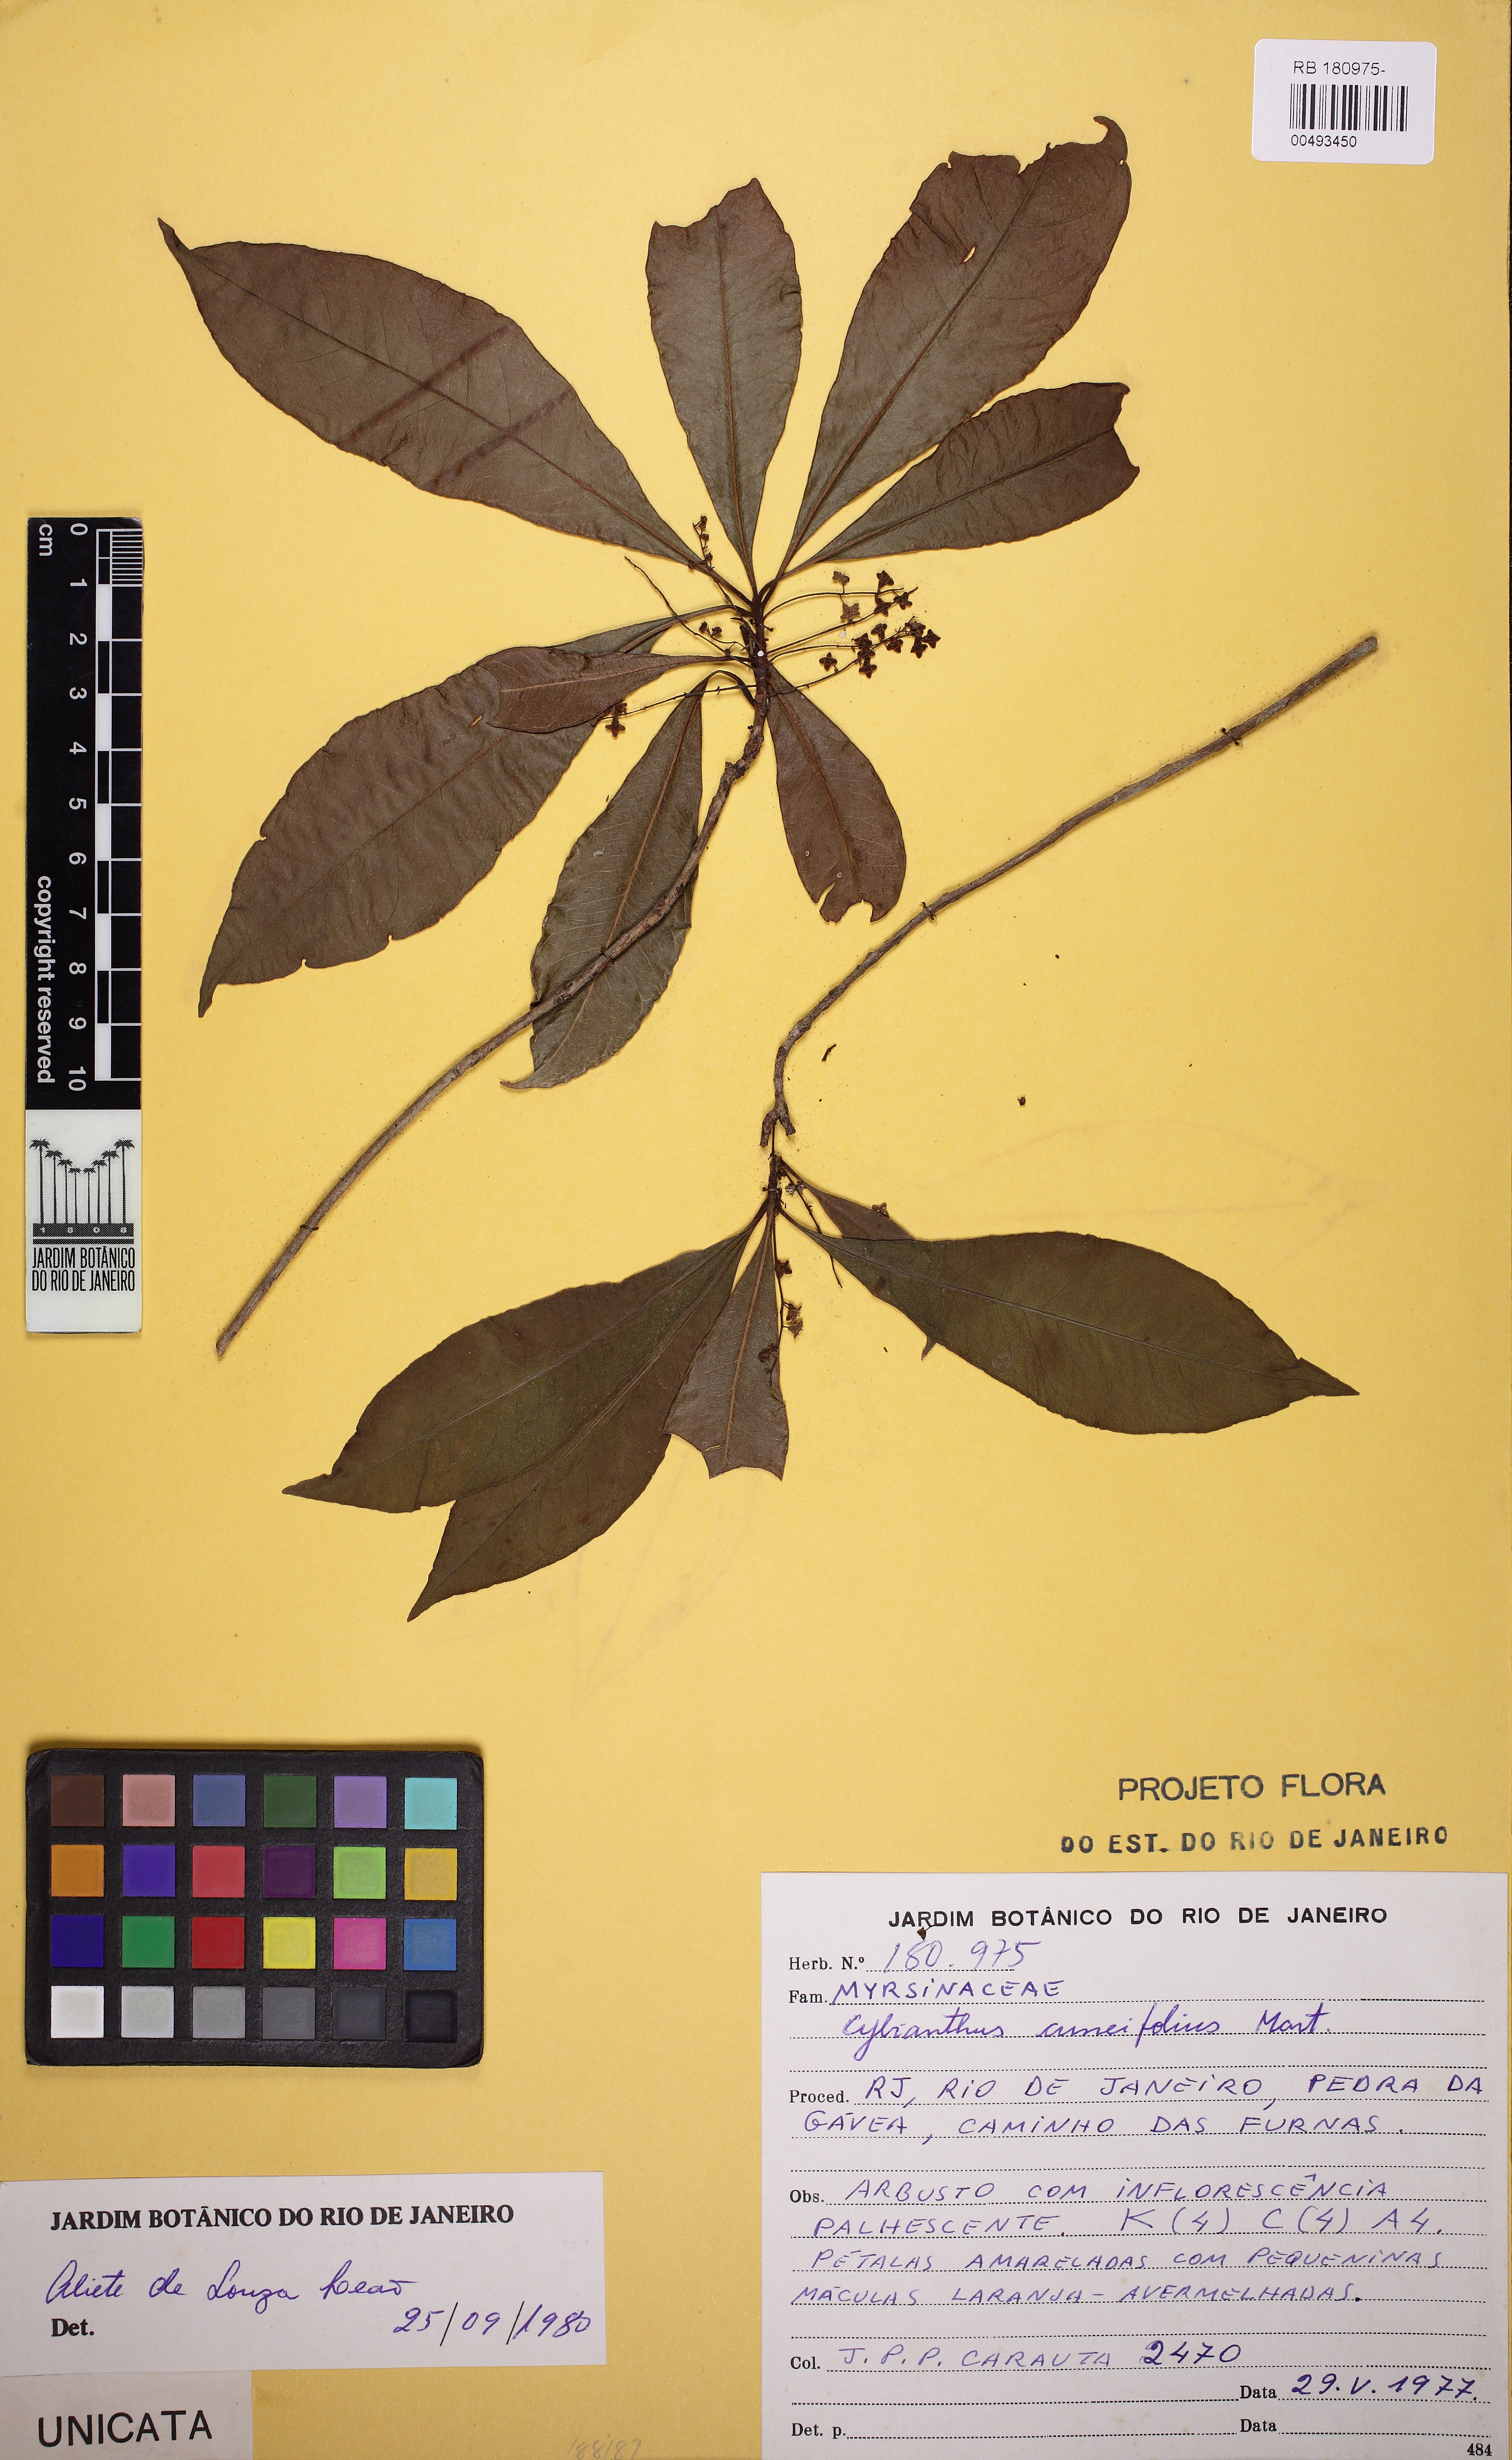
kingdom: Plantae
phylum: Tracheophyta
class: Magnoliopsida
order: Ericales
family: Primulaceae
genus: Cybianthus
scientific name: Cybianthus pastensis
